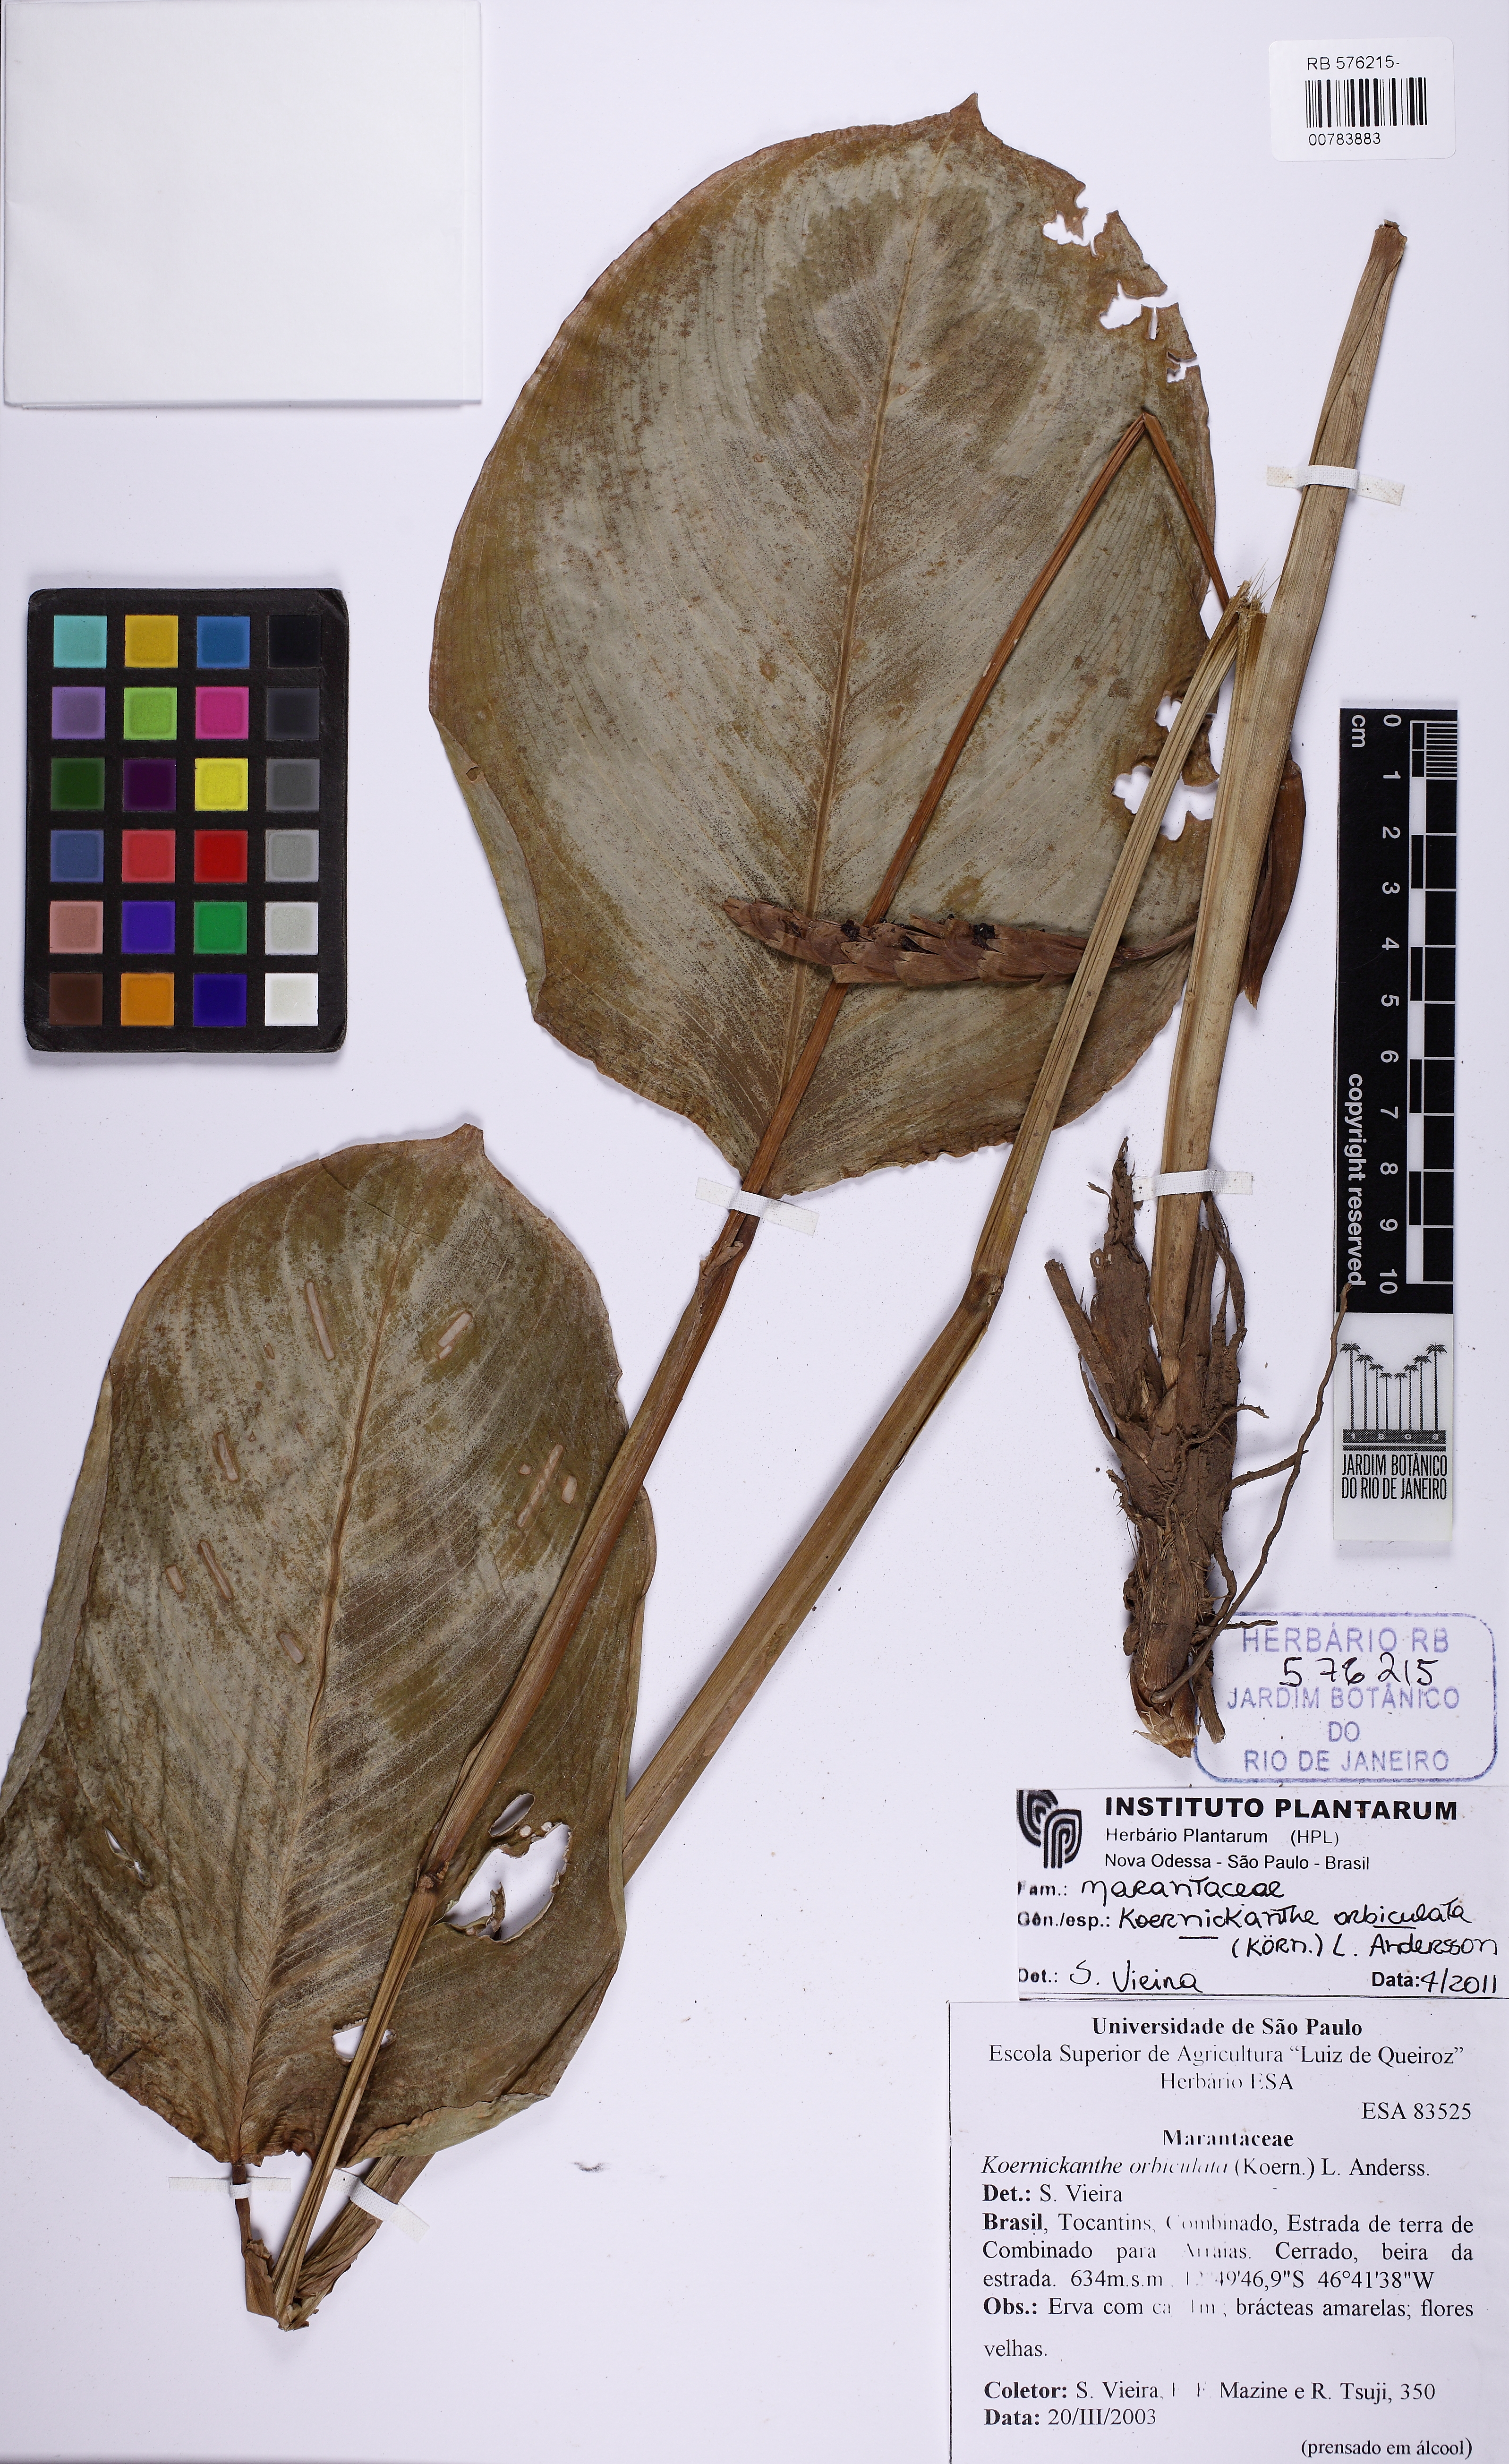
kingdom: Plantae
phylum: Tracheophyta
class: Liliopsida
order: Zingiberales
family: Marantaceae
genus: Koernickanthe
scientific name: Koernickanthe orbiculata
